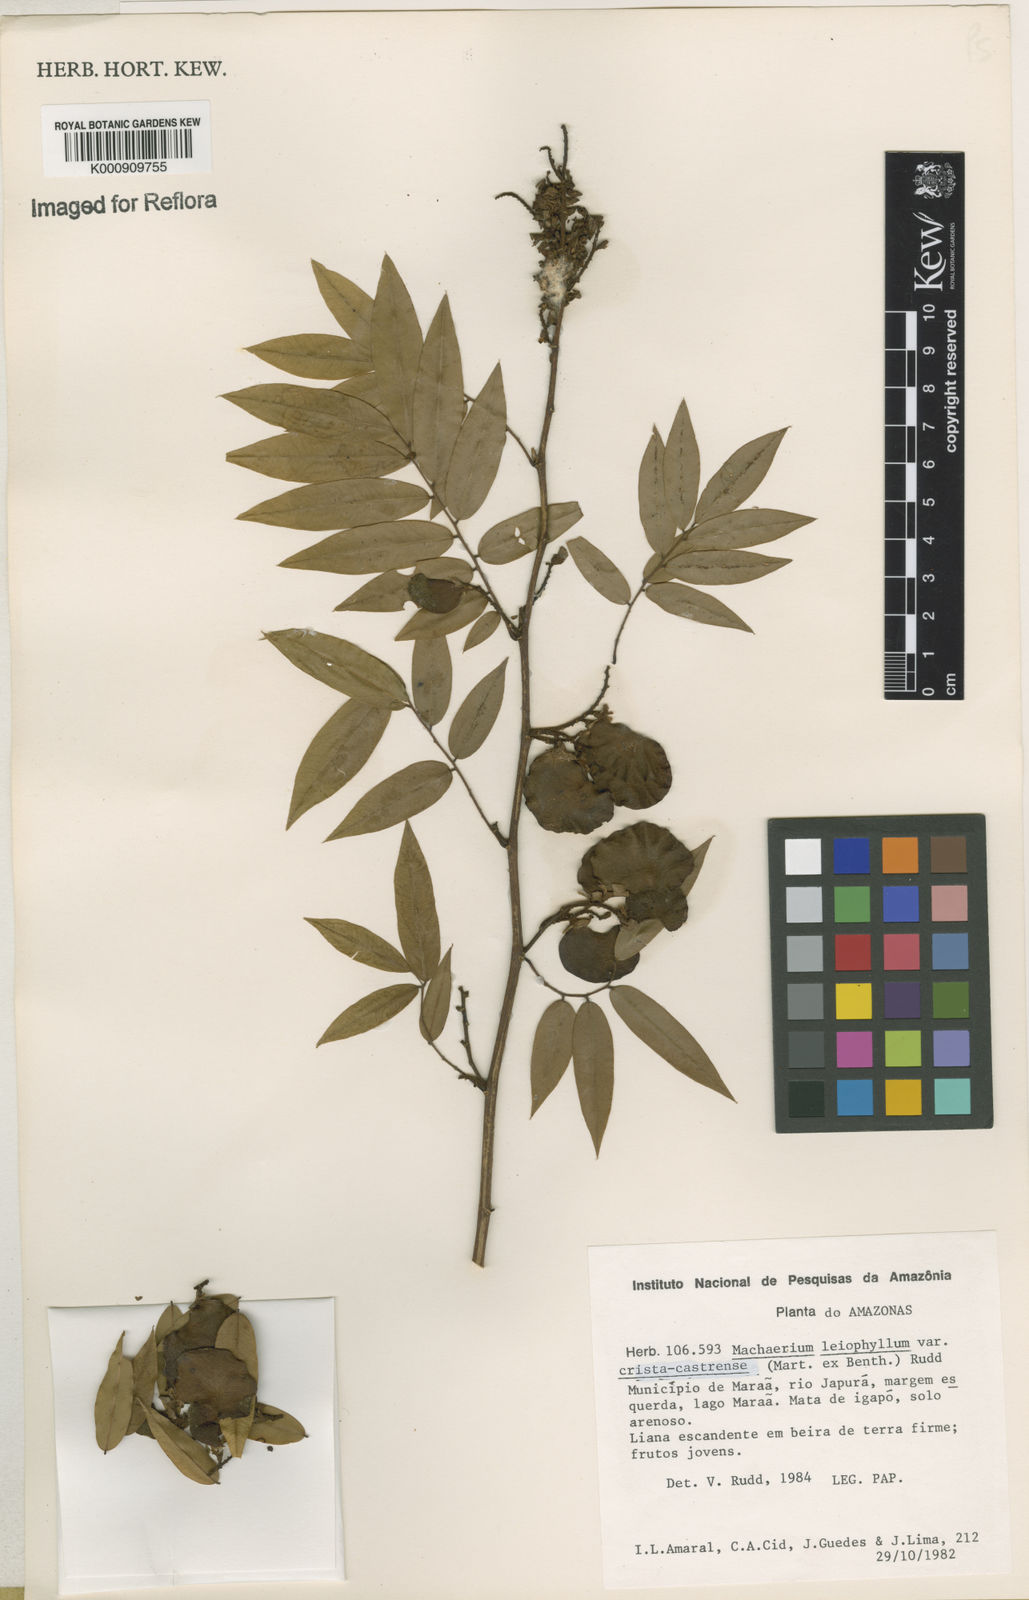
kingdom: Plantae
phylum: Tracheophyta
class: Magnoliopsida
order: Fabales
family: Fabaceae
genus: Machaerium
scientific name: Machaerium leiophyllum
